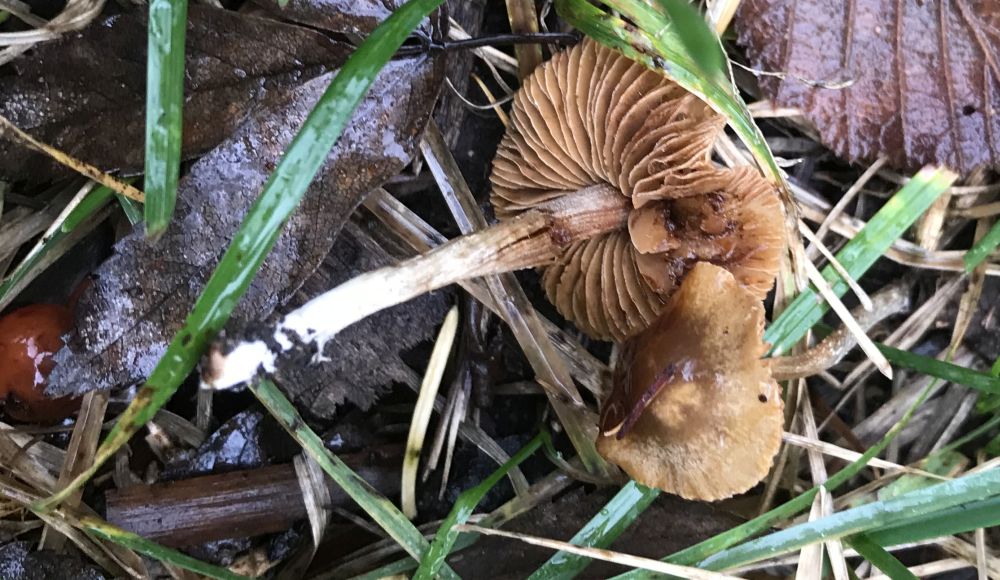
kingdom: Fungi
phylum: Basidiomycota
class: Agaricomycetes
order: Agaricales
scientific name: Agaricales
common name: champignonordenen
